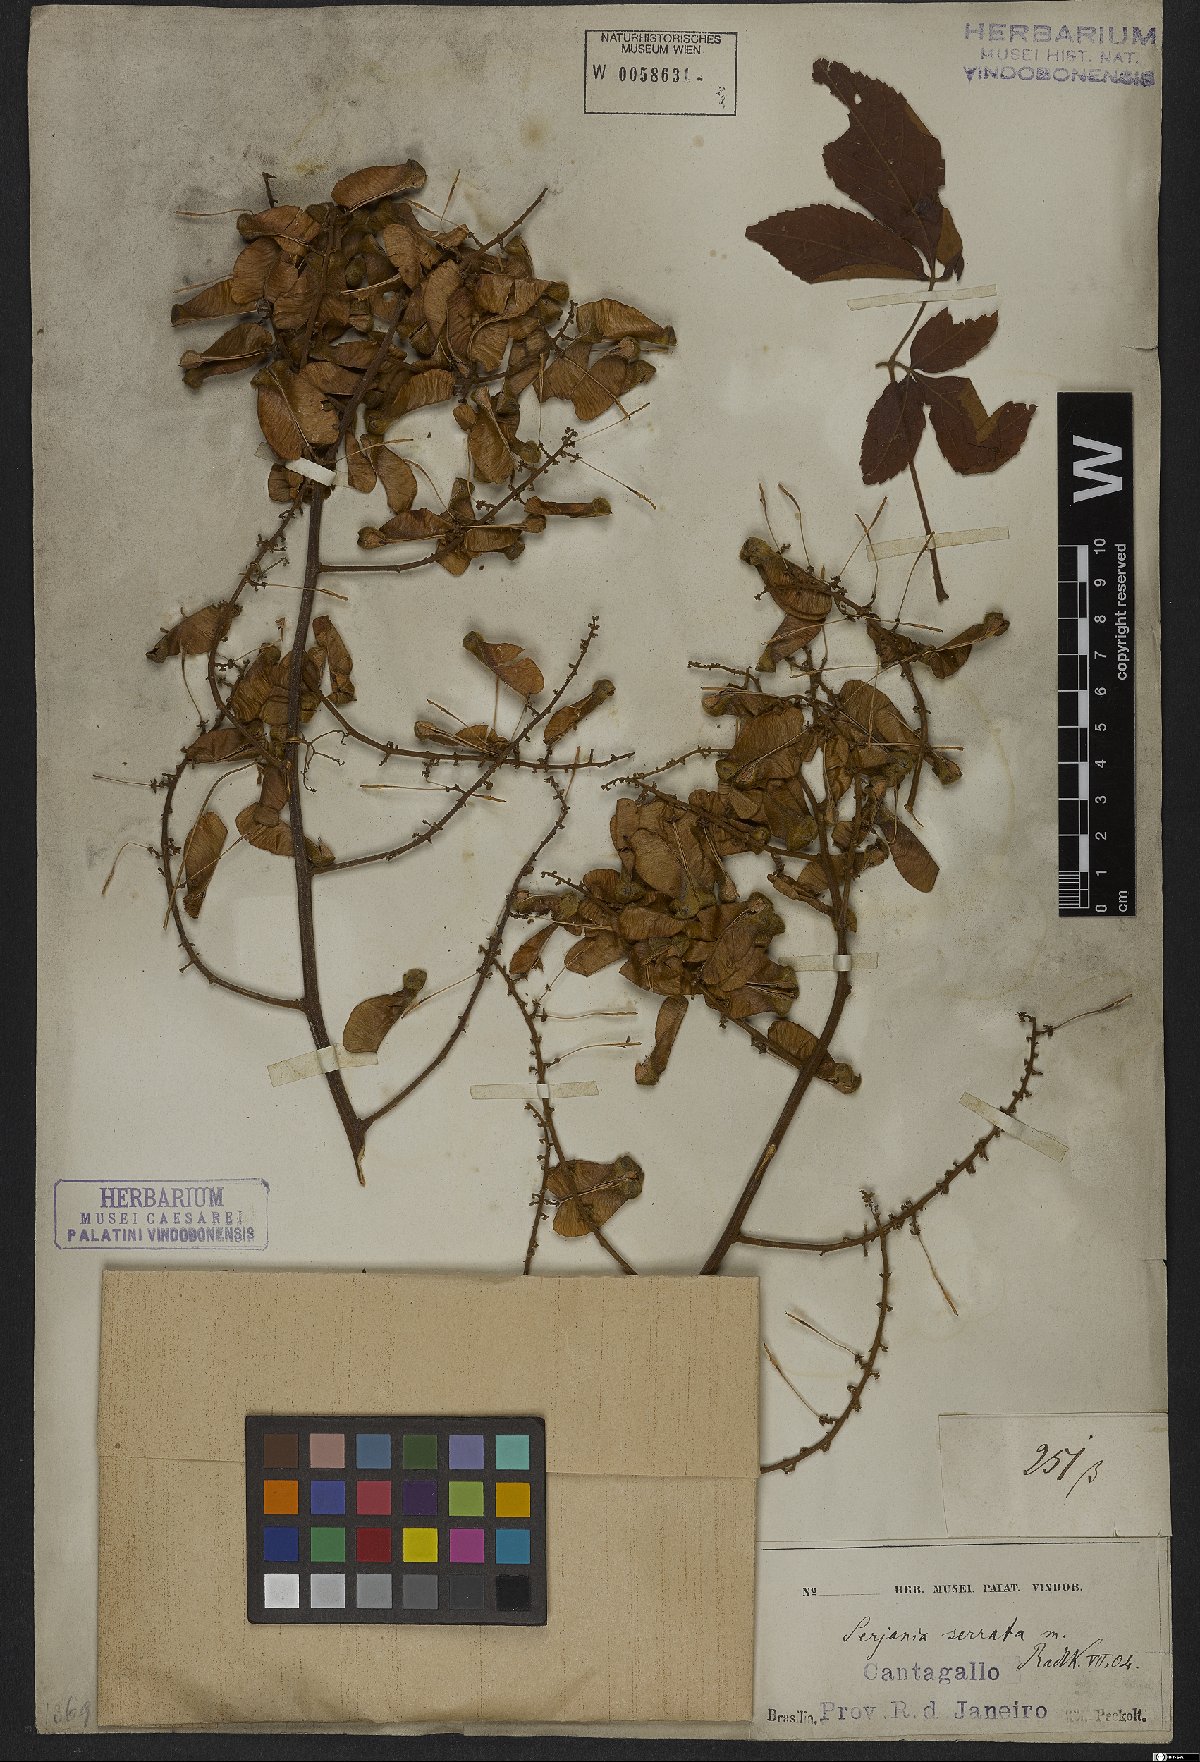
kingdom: Plantae
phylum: Tracheophyta
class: Magnoliopsida
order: Sapindales
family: Sapindaceae
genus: Serjania
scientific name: Serjania serrata
